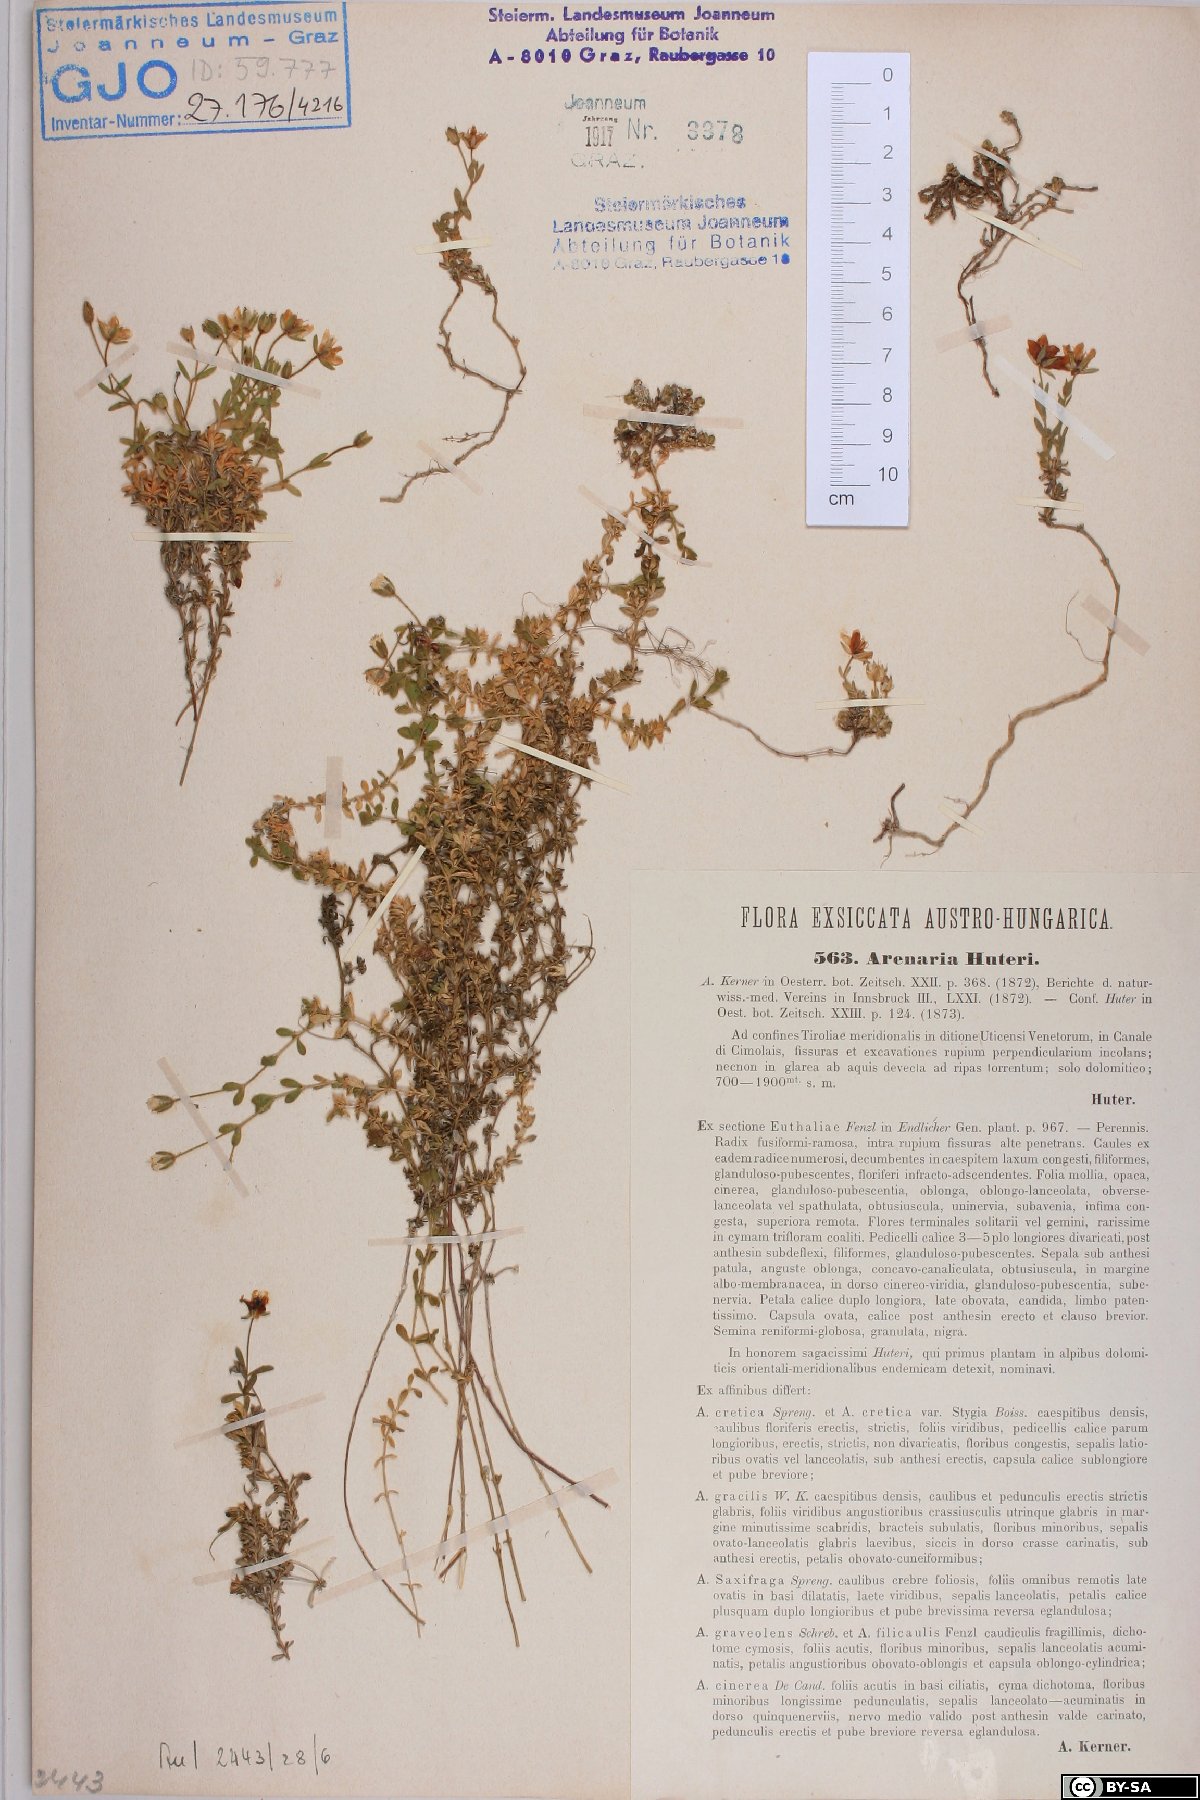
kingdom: Plantae
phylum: Tracheophyta
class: Magnoliopsida
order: Caryophyllales
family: Caryophyllaceae
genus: Arenaria
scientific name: Arenaria huteri
